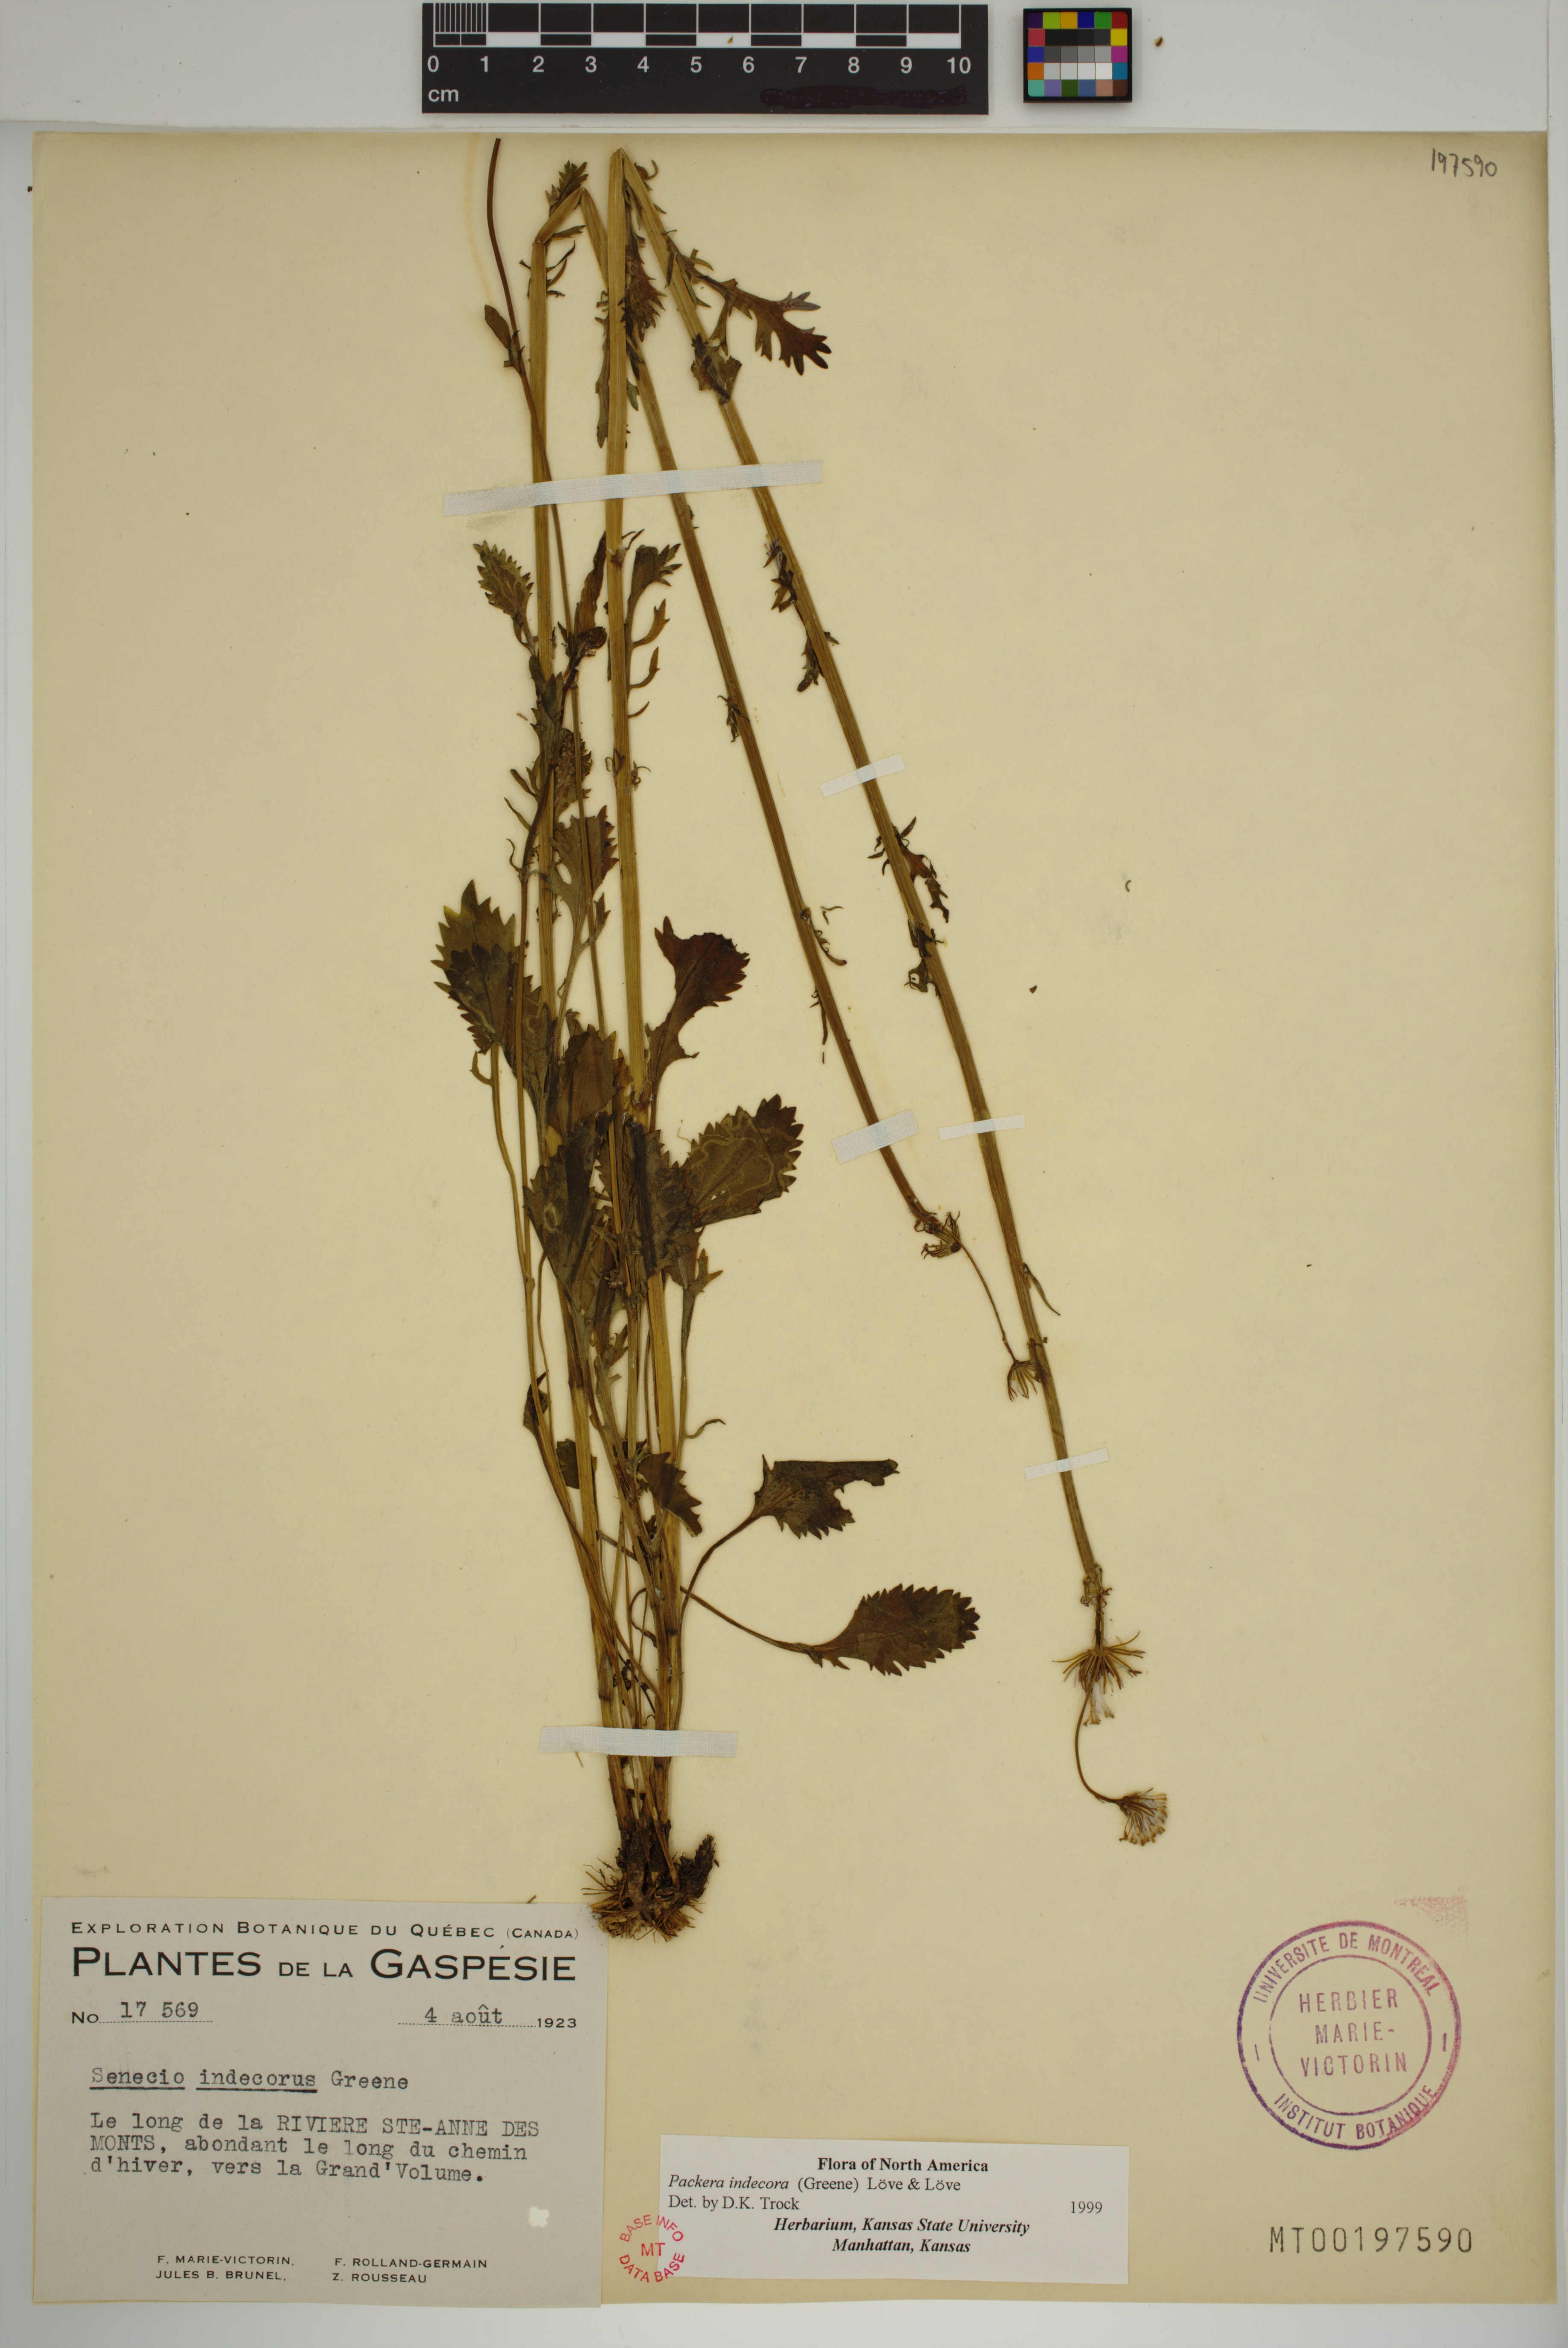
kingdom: Plantae
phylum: Tracheophyta
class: Magnoliopsida
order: Asterales
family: Asteraceae
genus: Packera
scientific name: Packera indecora
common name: Elegant groundsel
